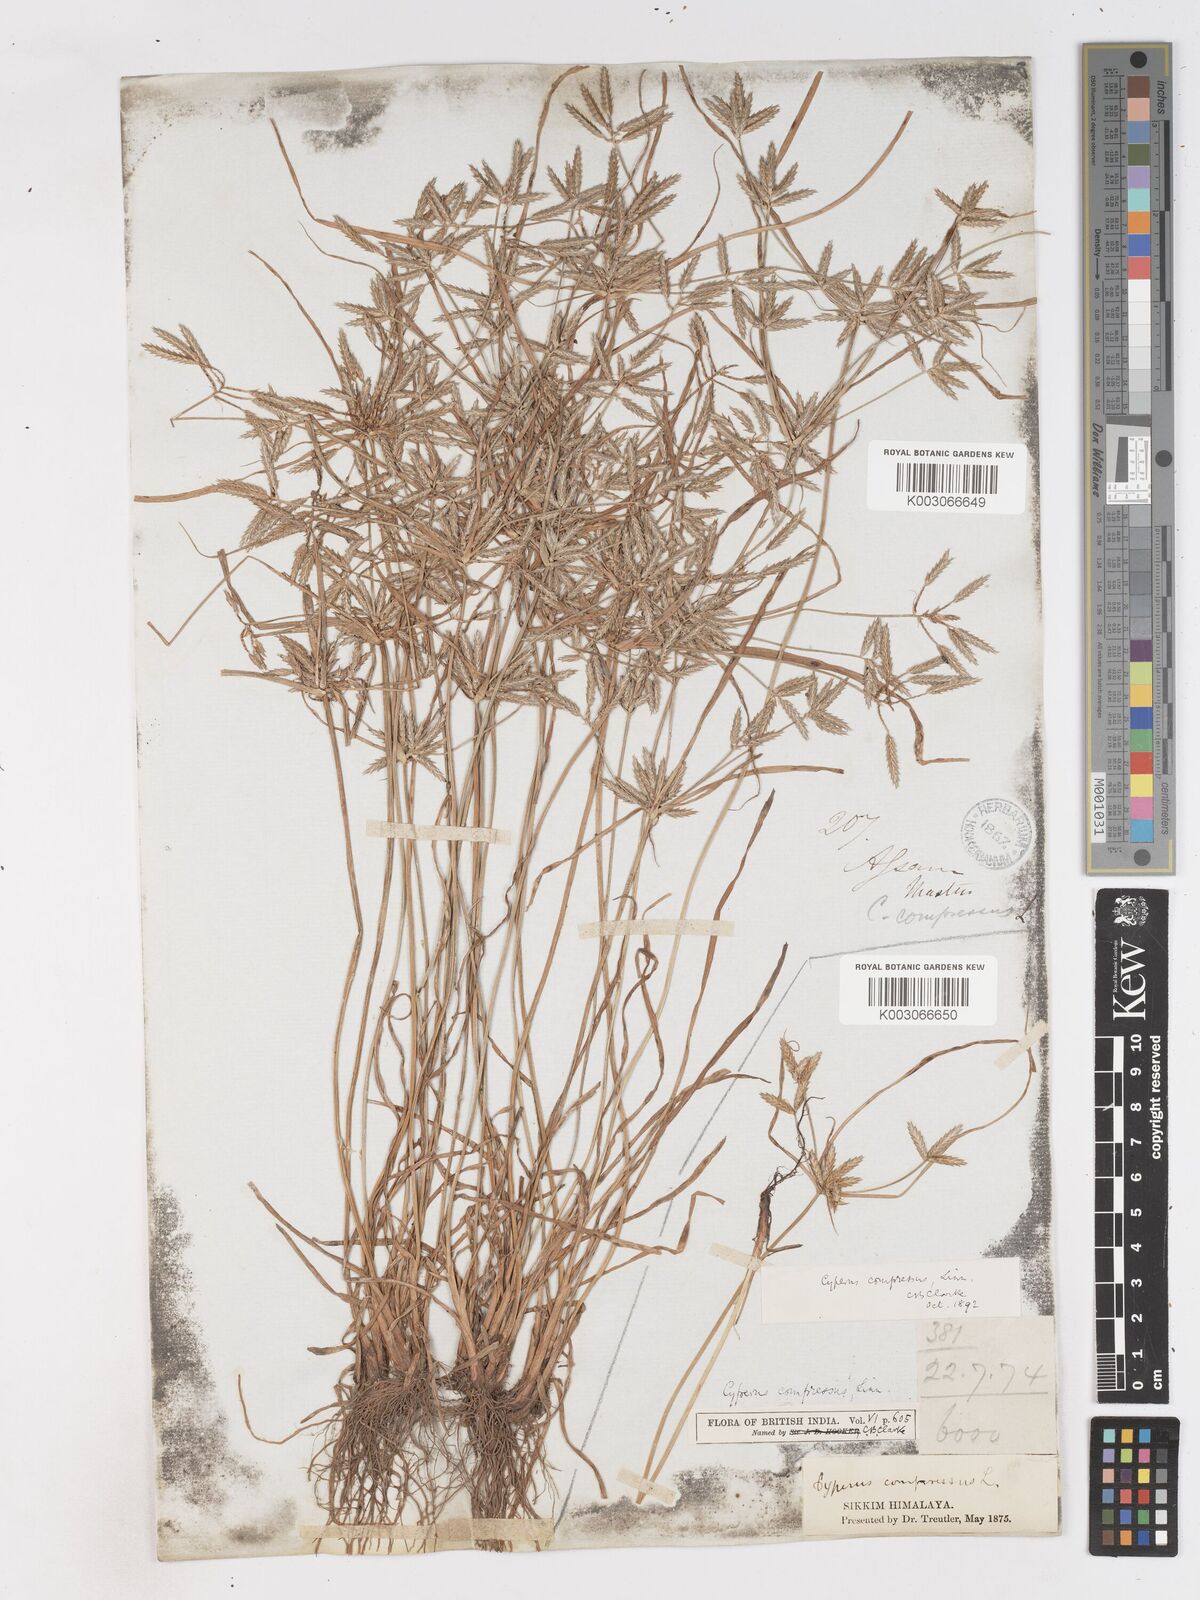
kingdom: Plantae
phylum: Tracheophyta
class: Liliopsida
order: Poales
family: Cyperaceae
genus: Cyperus
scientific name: Cyperus compressus
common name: Poorland flatsedge
